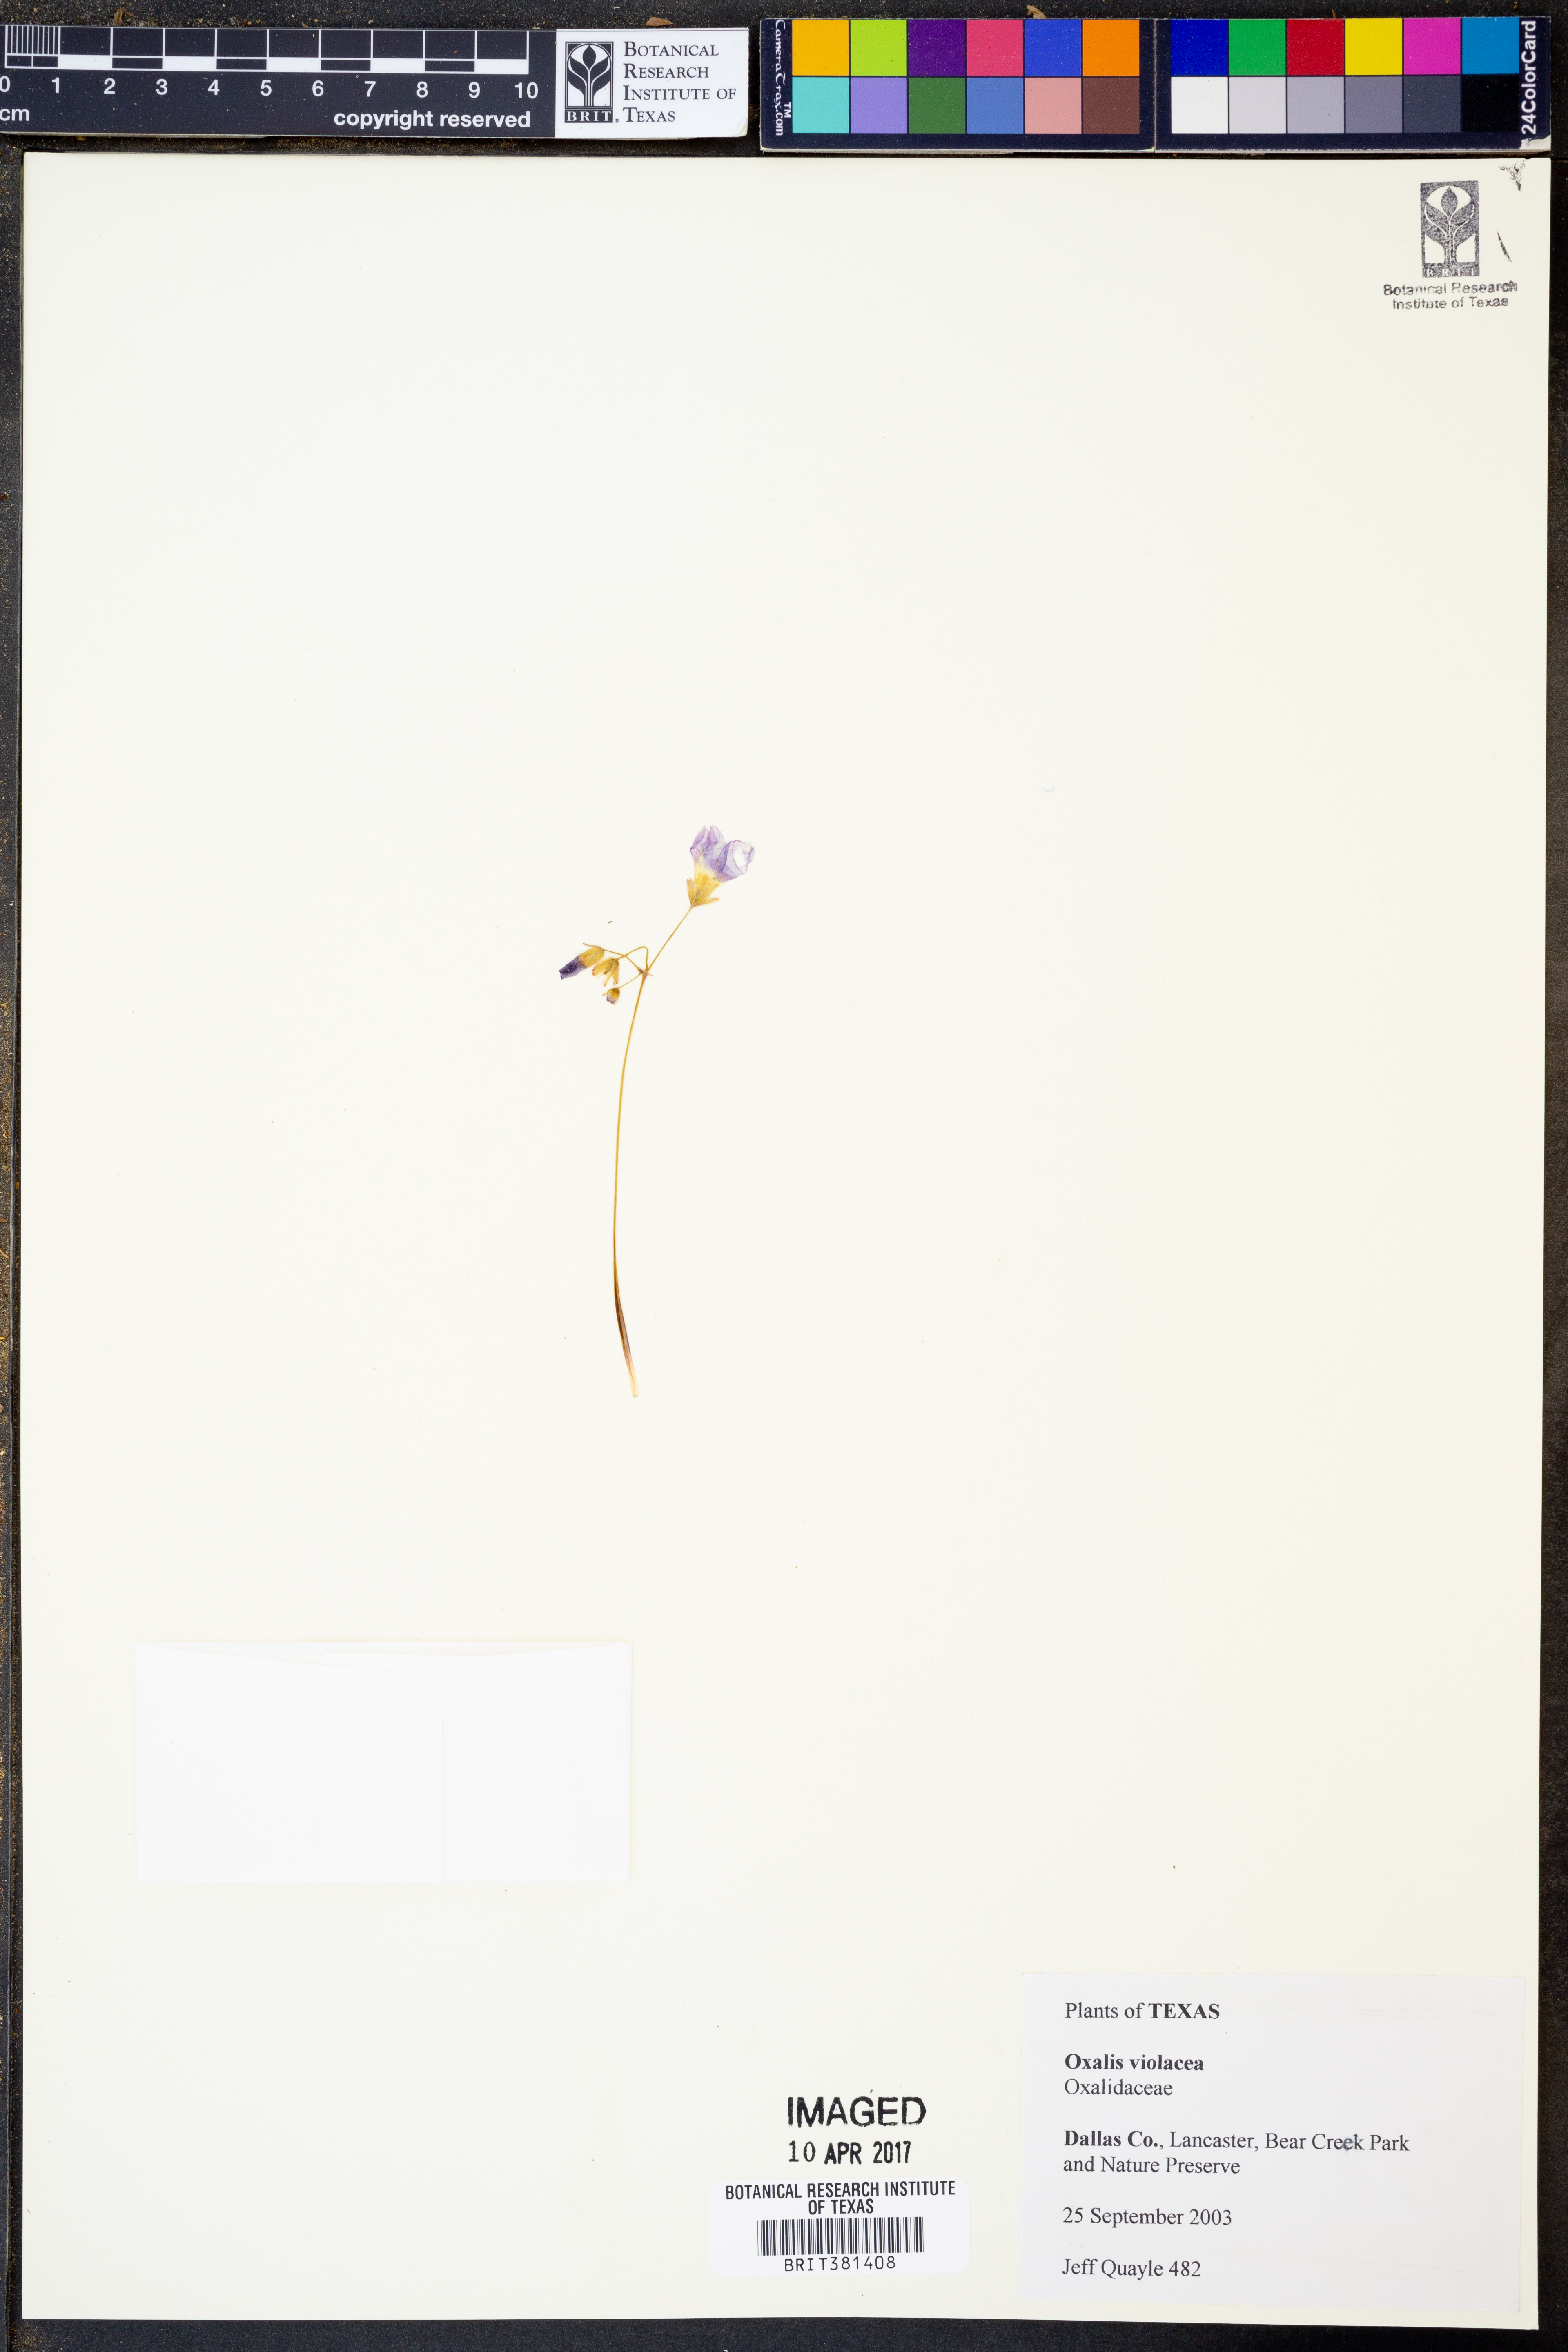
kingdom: Plantae
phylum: Tracheophyta
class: Magnoliopsida
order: Oxalidales
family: Oxalidaceae
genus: Oxalis
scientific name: Oxalis violacea
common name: Violet wood-sorrel
